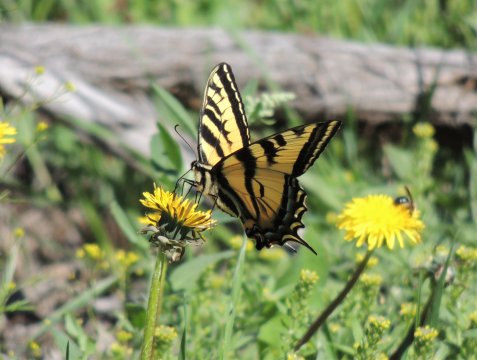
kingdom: Animalia
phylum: Arthropoda
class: Insecta
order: Lepidoptera
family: Papilionidae
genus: Pterourus
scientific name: Pterourus rutulus
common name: Western Tiger Swallowtail
